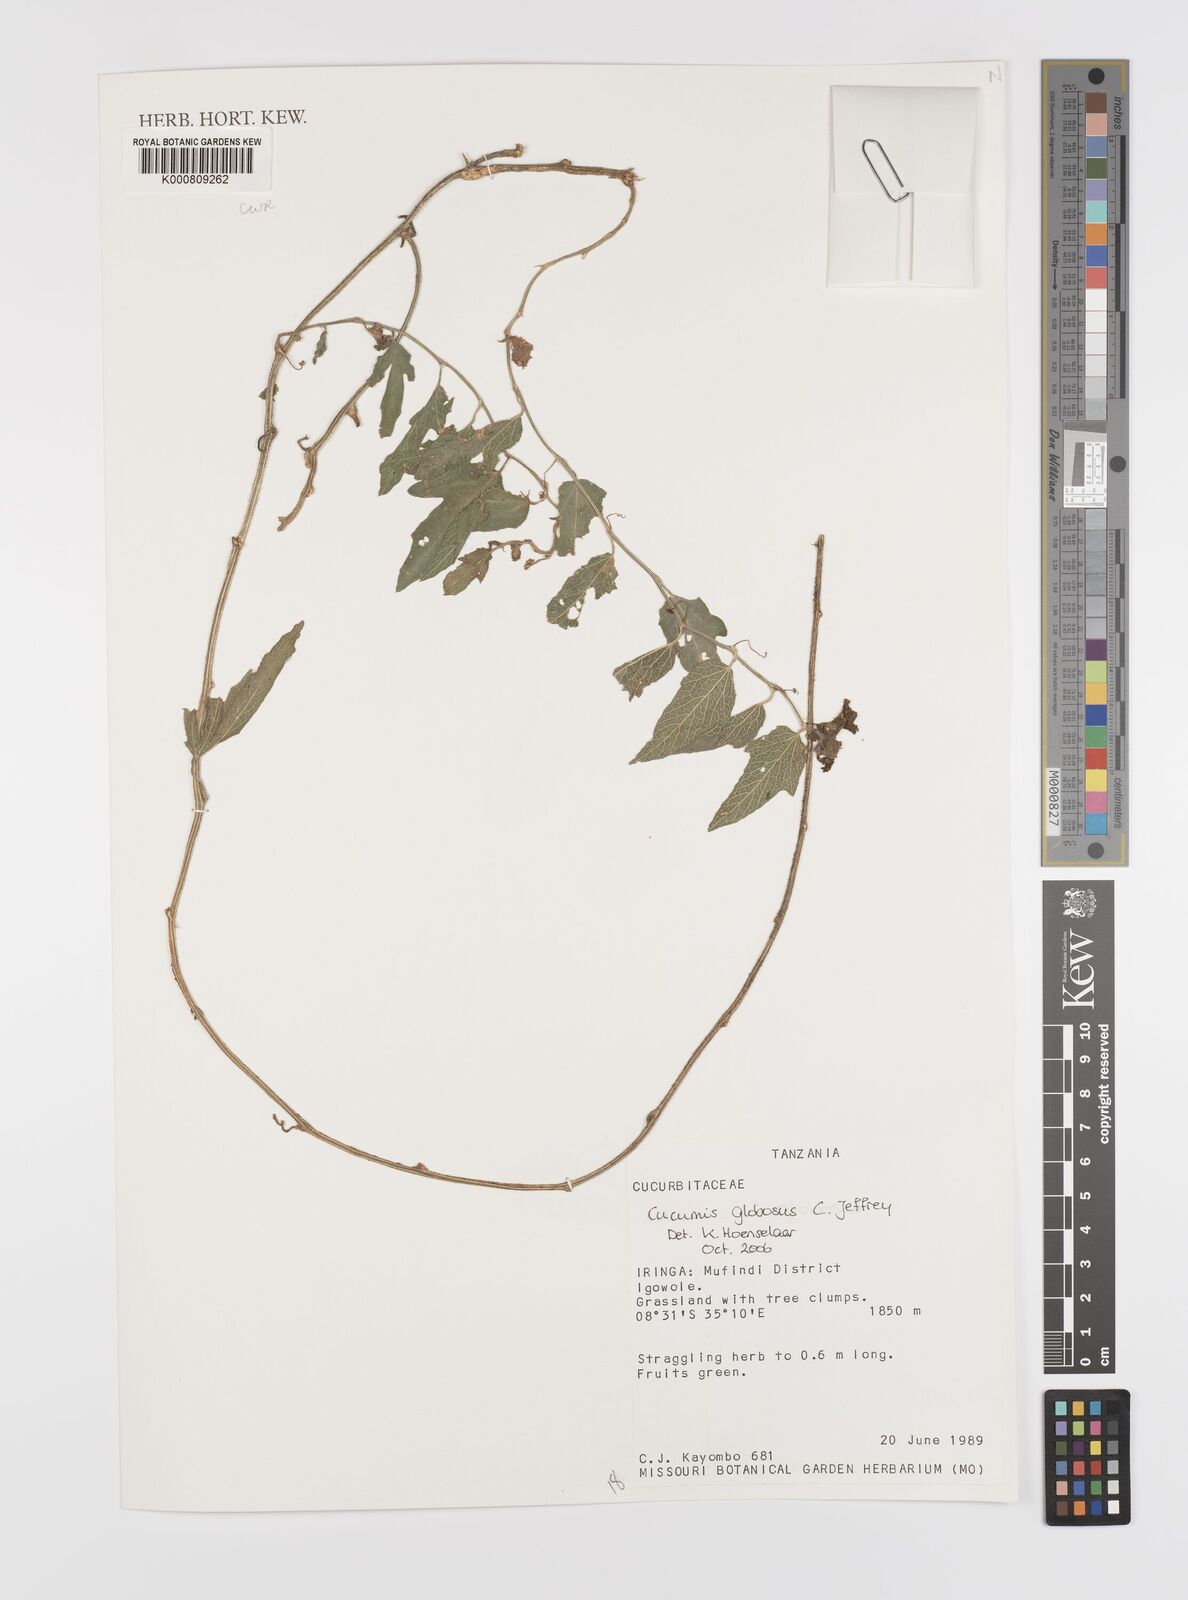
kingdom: Plantae
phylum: Tracheophyta
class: Magnoliopsida
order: Cucurbitales
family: Cucurbitaceae
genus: Cucumis
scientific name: Cucumis globosus
